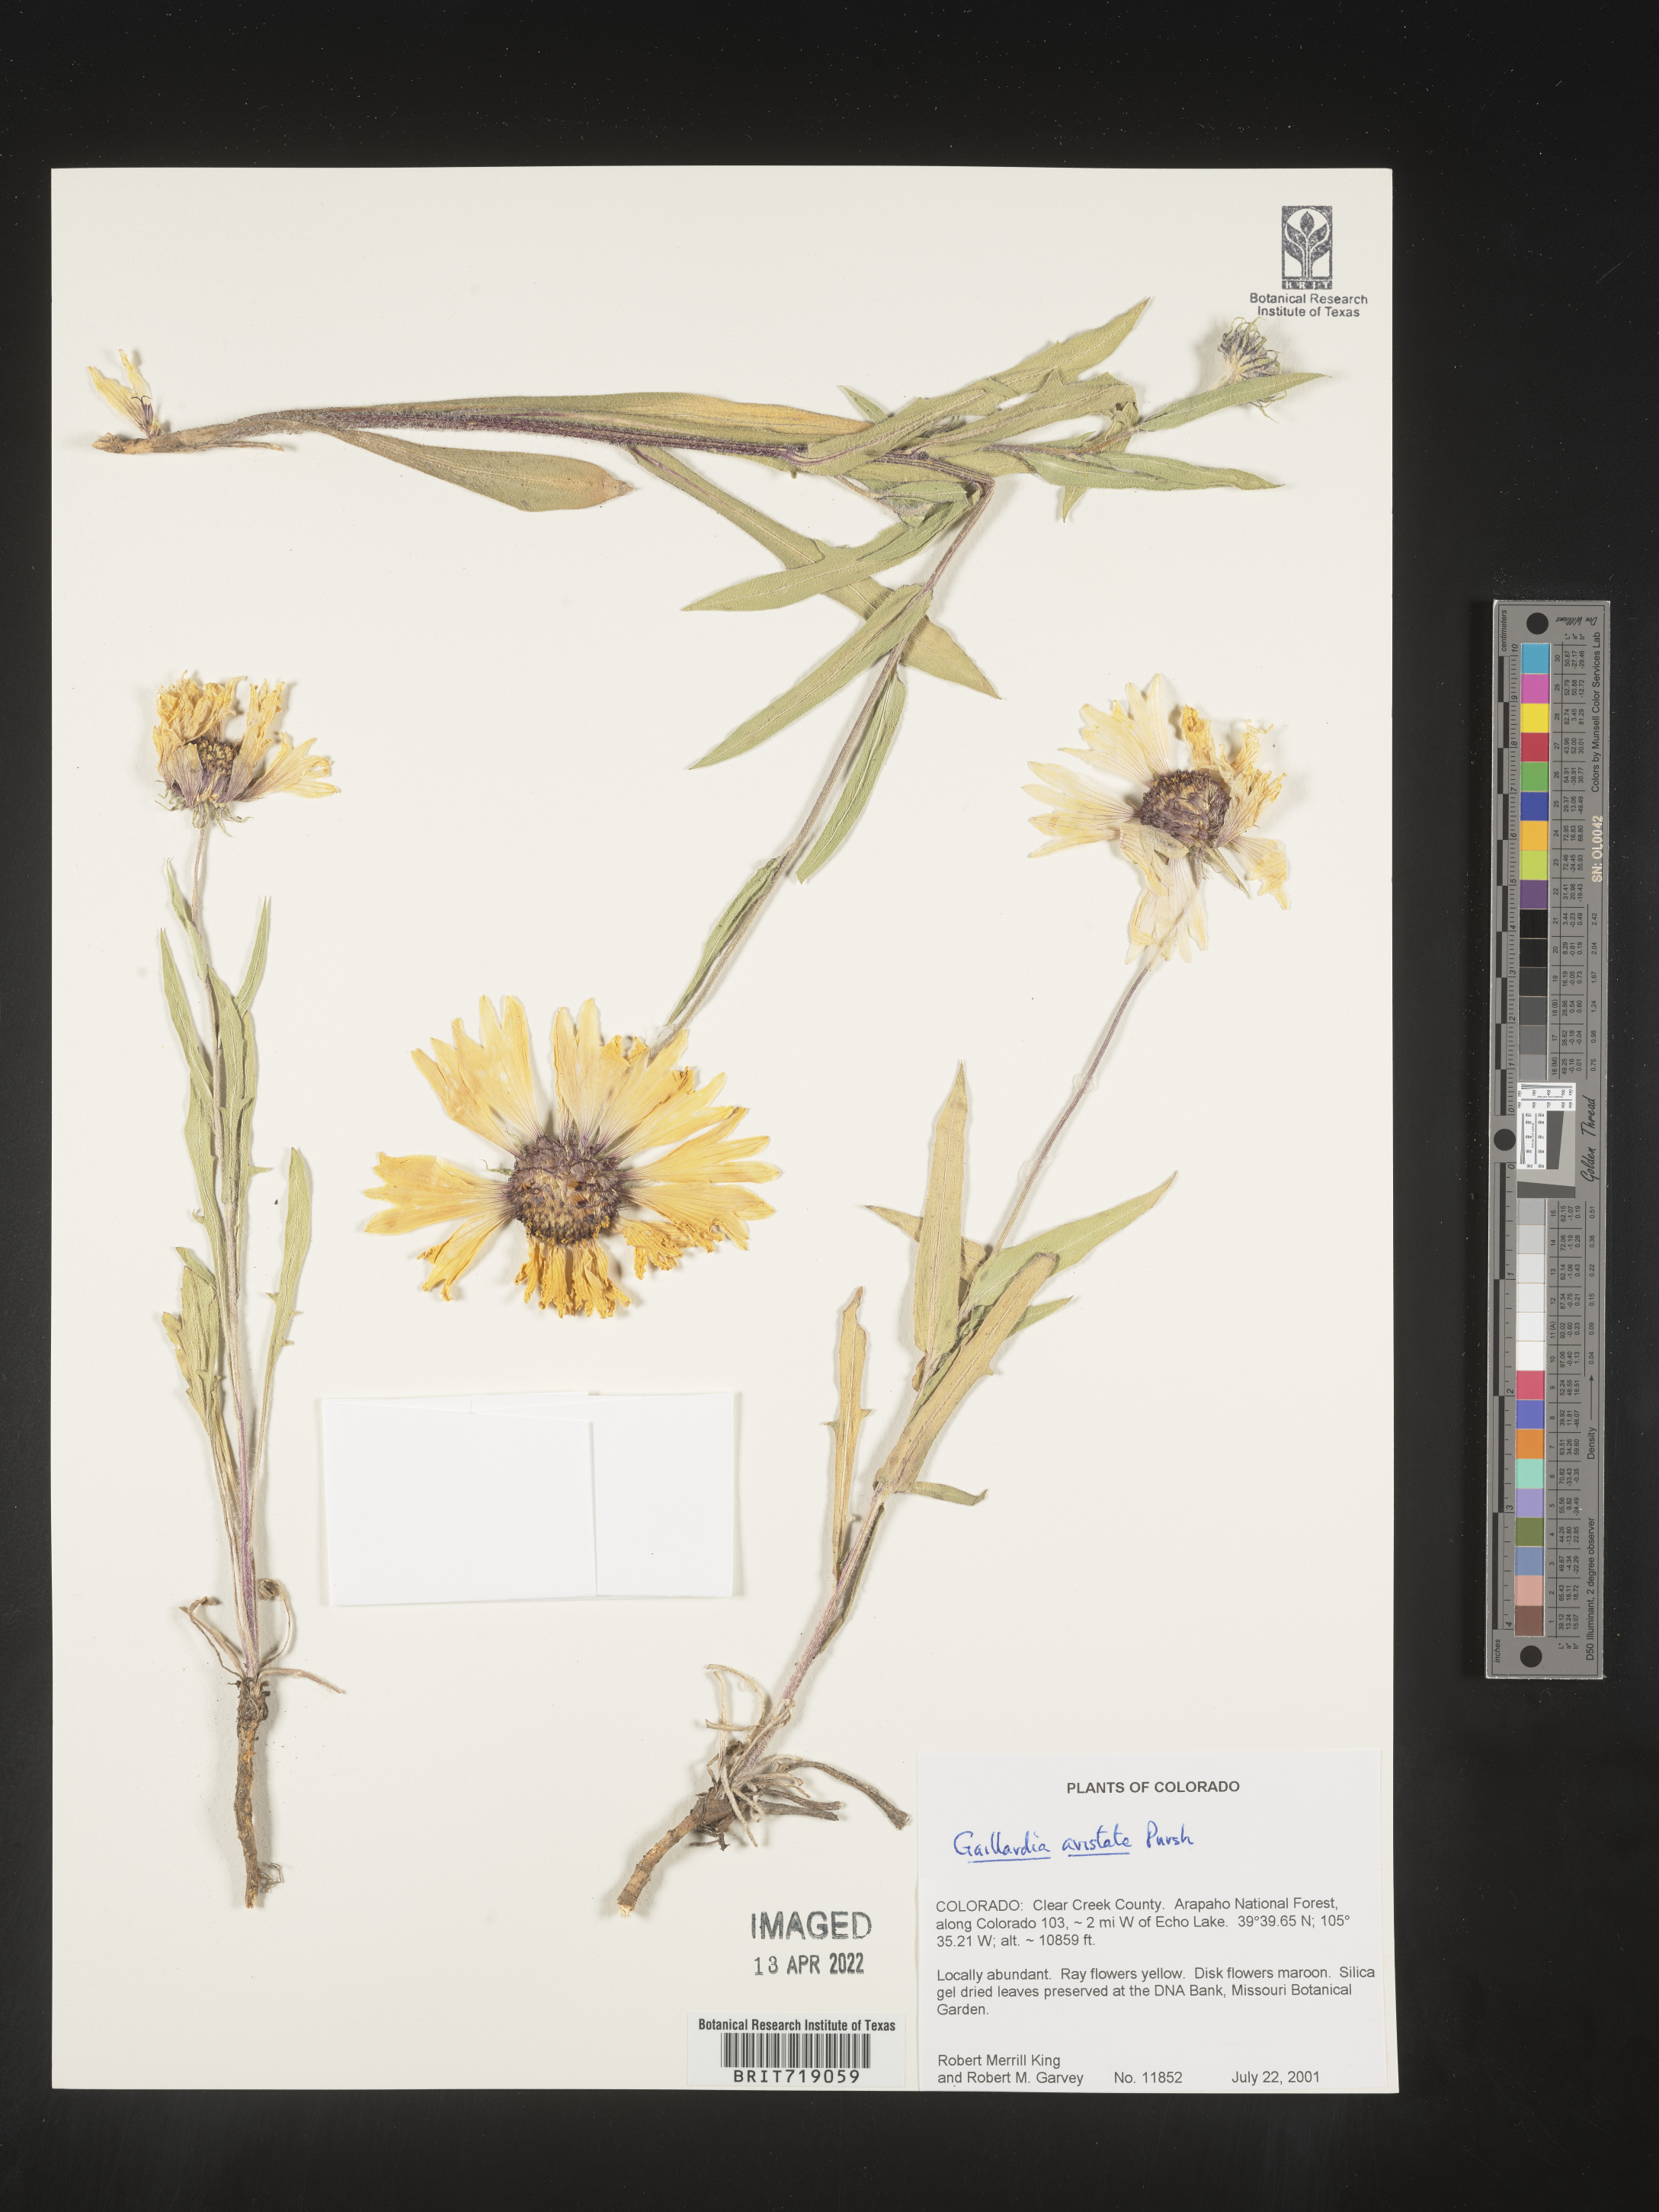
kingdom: Plantae
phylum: Tracheophyta
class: Magnoliopsida
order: Asterales
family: Asteraceae
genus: Gaillardia
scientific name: Gaillardia aristata
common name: Blanket-flower
